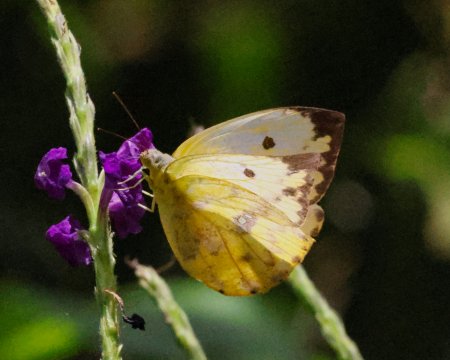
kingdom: Animalia
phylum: Arthropoda
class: Insecta
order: Lepidoptera
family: Pieridae
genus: Phoebis
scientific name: Phoebis argante
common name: Apricot Sulphur
